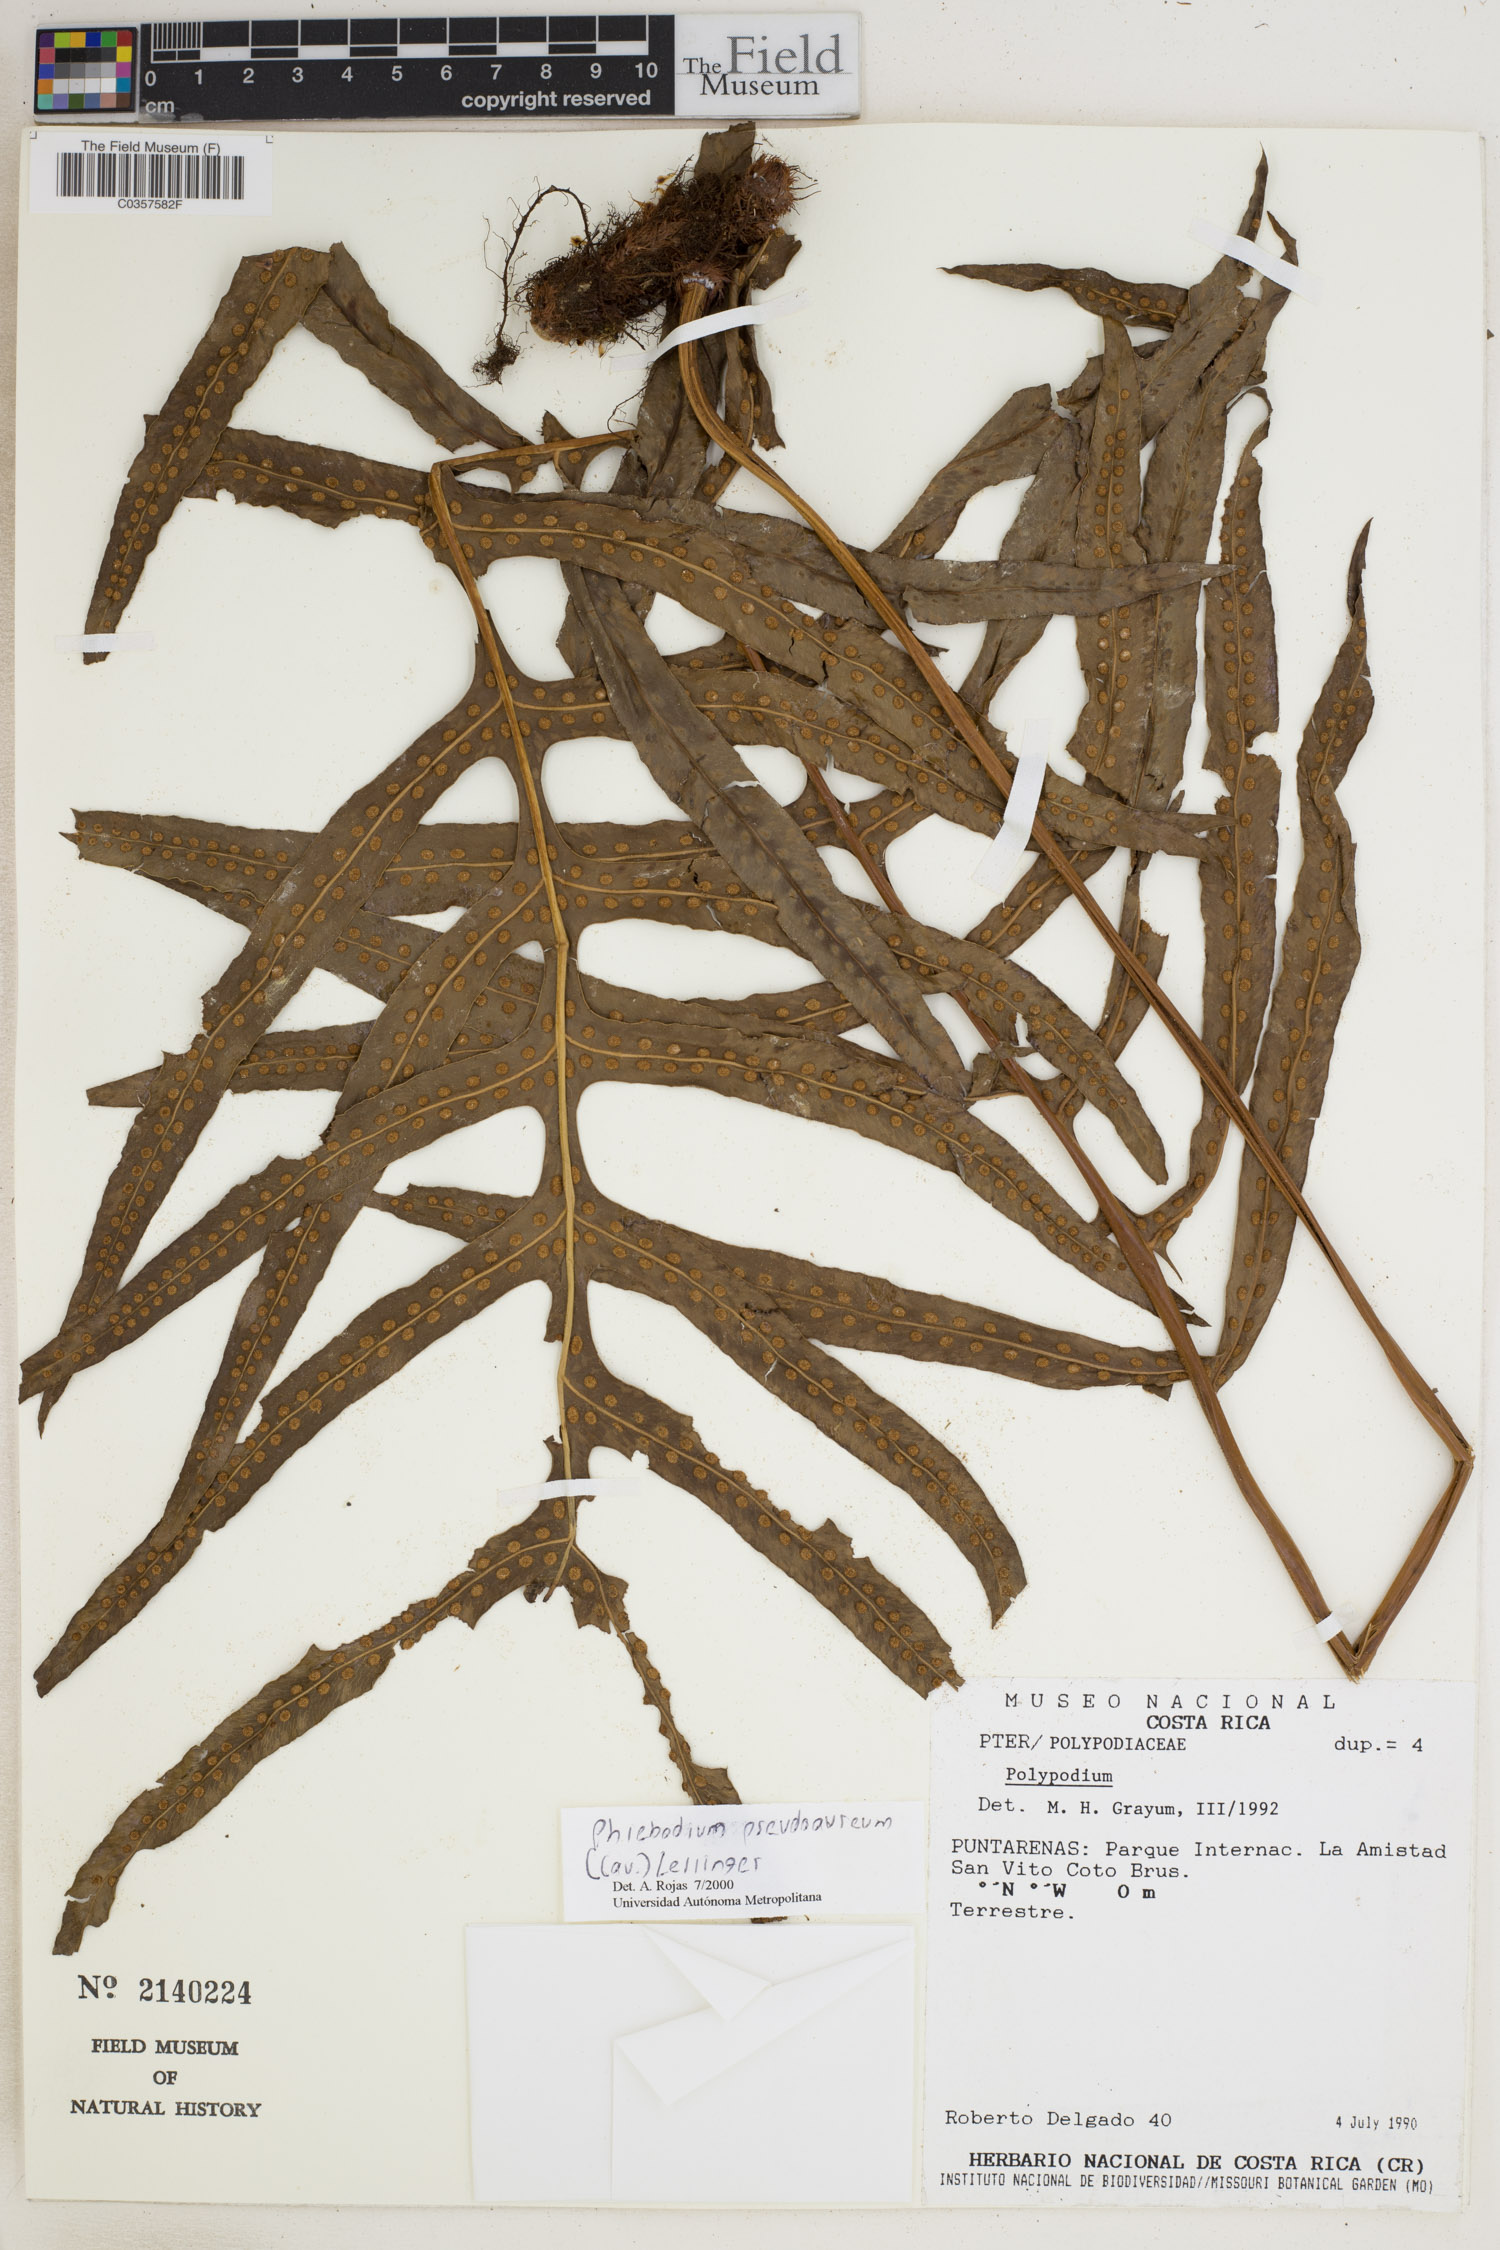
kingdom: Plantae
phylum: Tracheophyta
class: Polypodiopsida
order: Polypodiales
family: Polypodiaceae
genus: Phlebodium
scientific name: Phlebodium pseudoaureum
